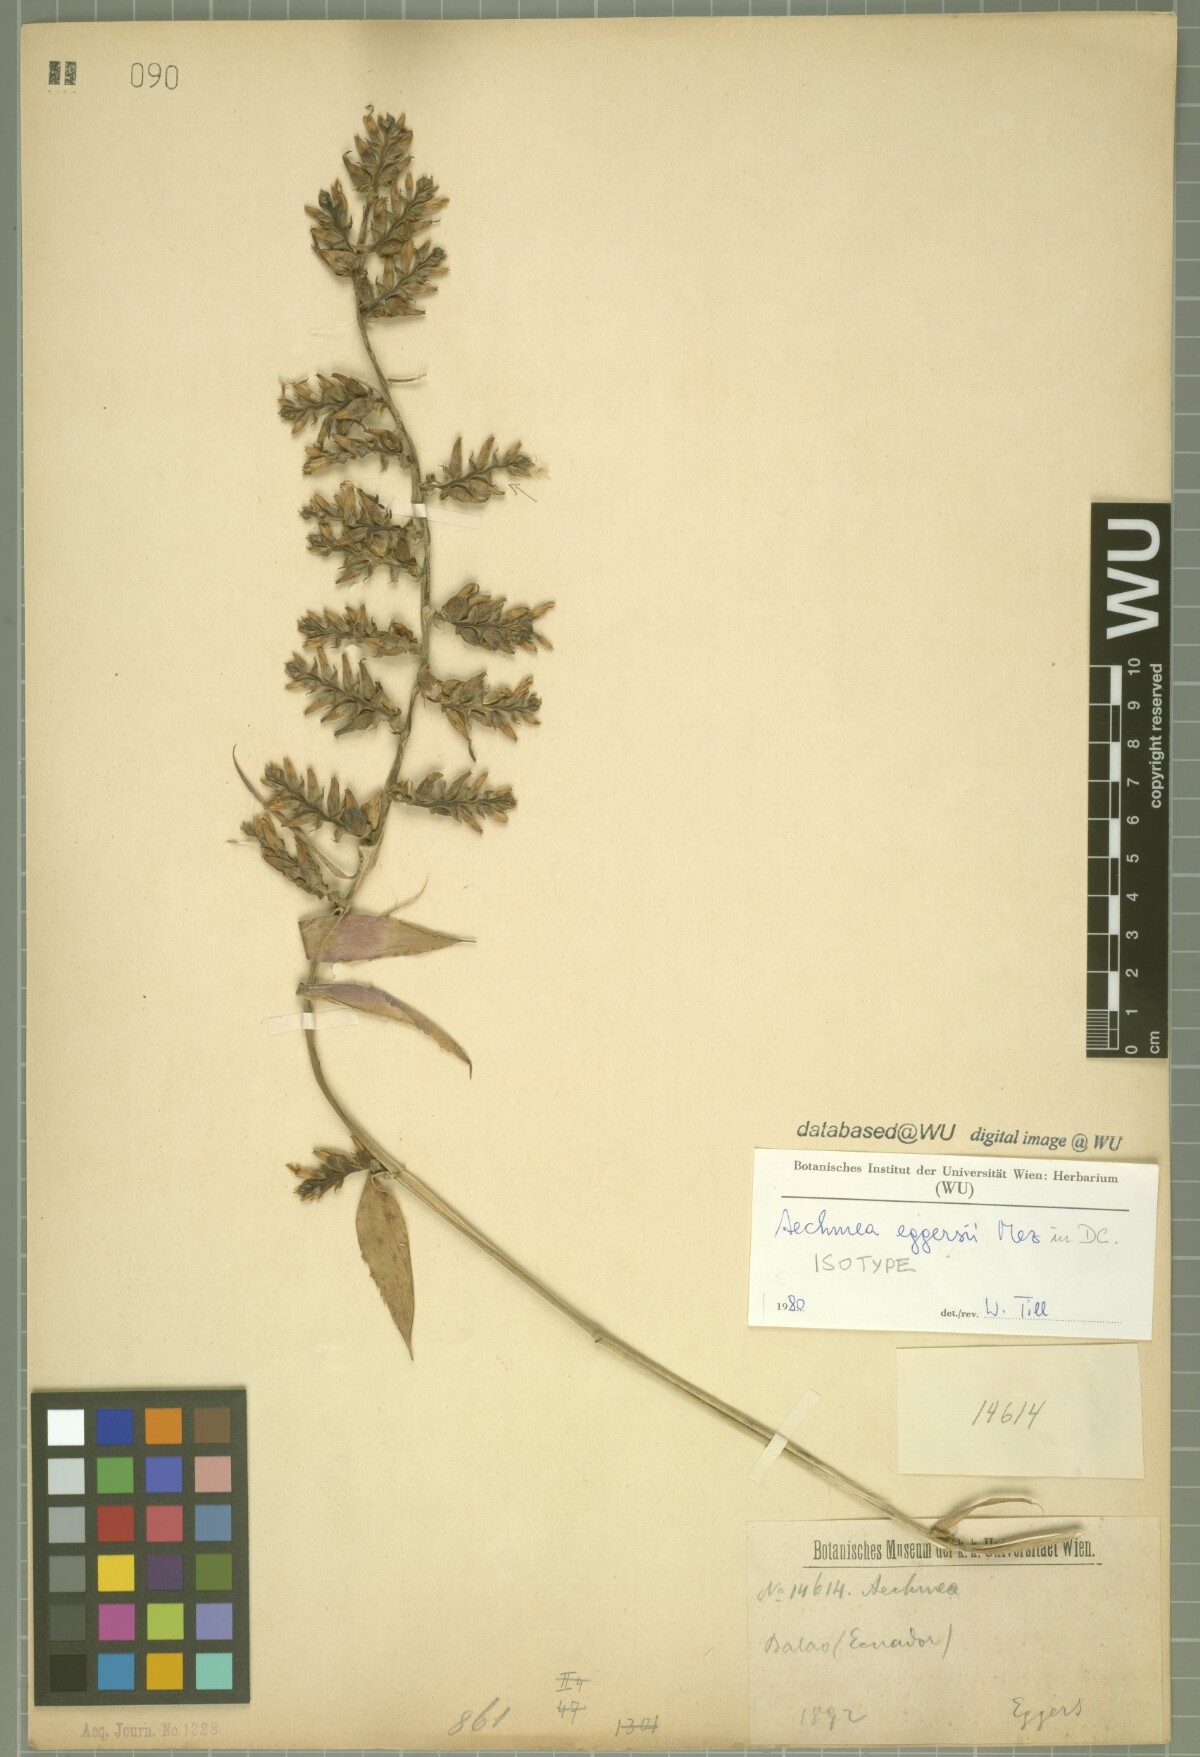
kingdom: Plantae
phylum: Tracheophyta
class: Liliopsida
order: Poales
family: Bromeliaceae
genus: Aechmea
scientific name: Aechmea angustifolia
